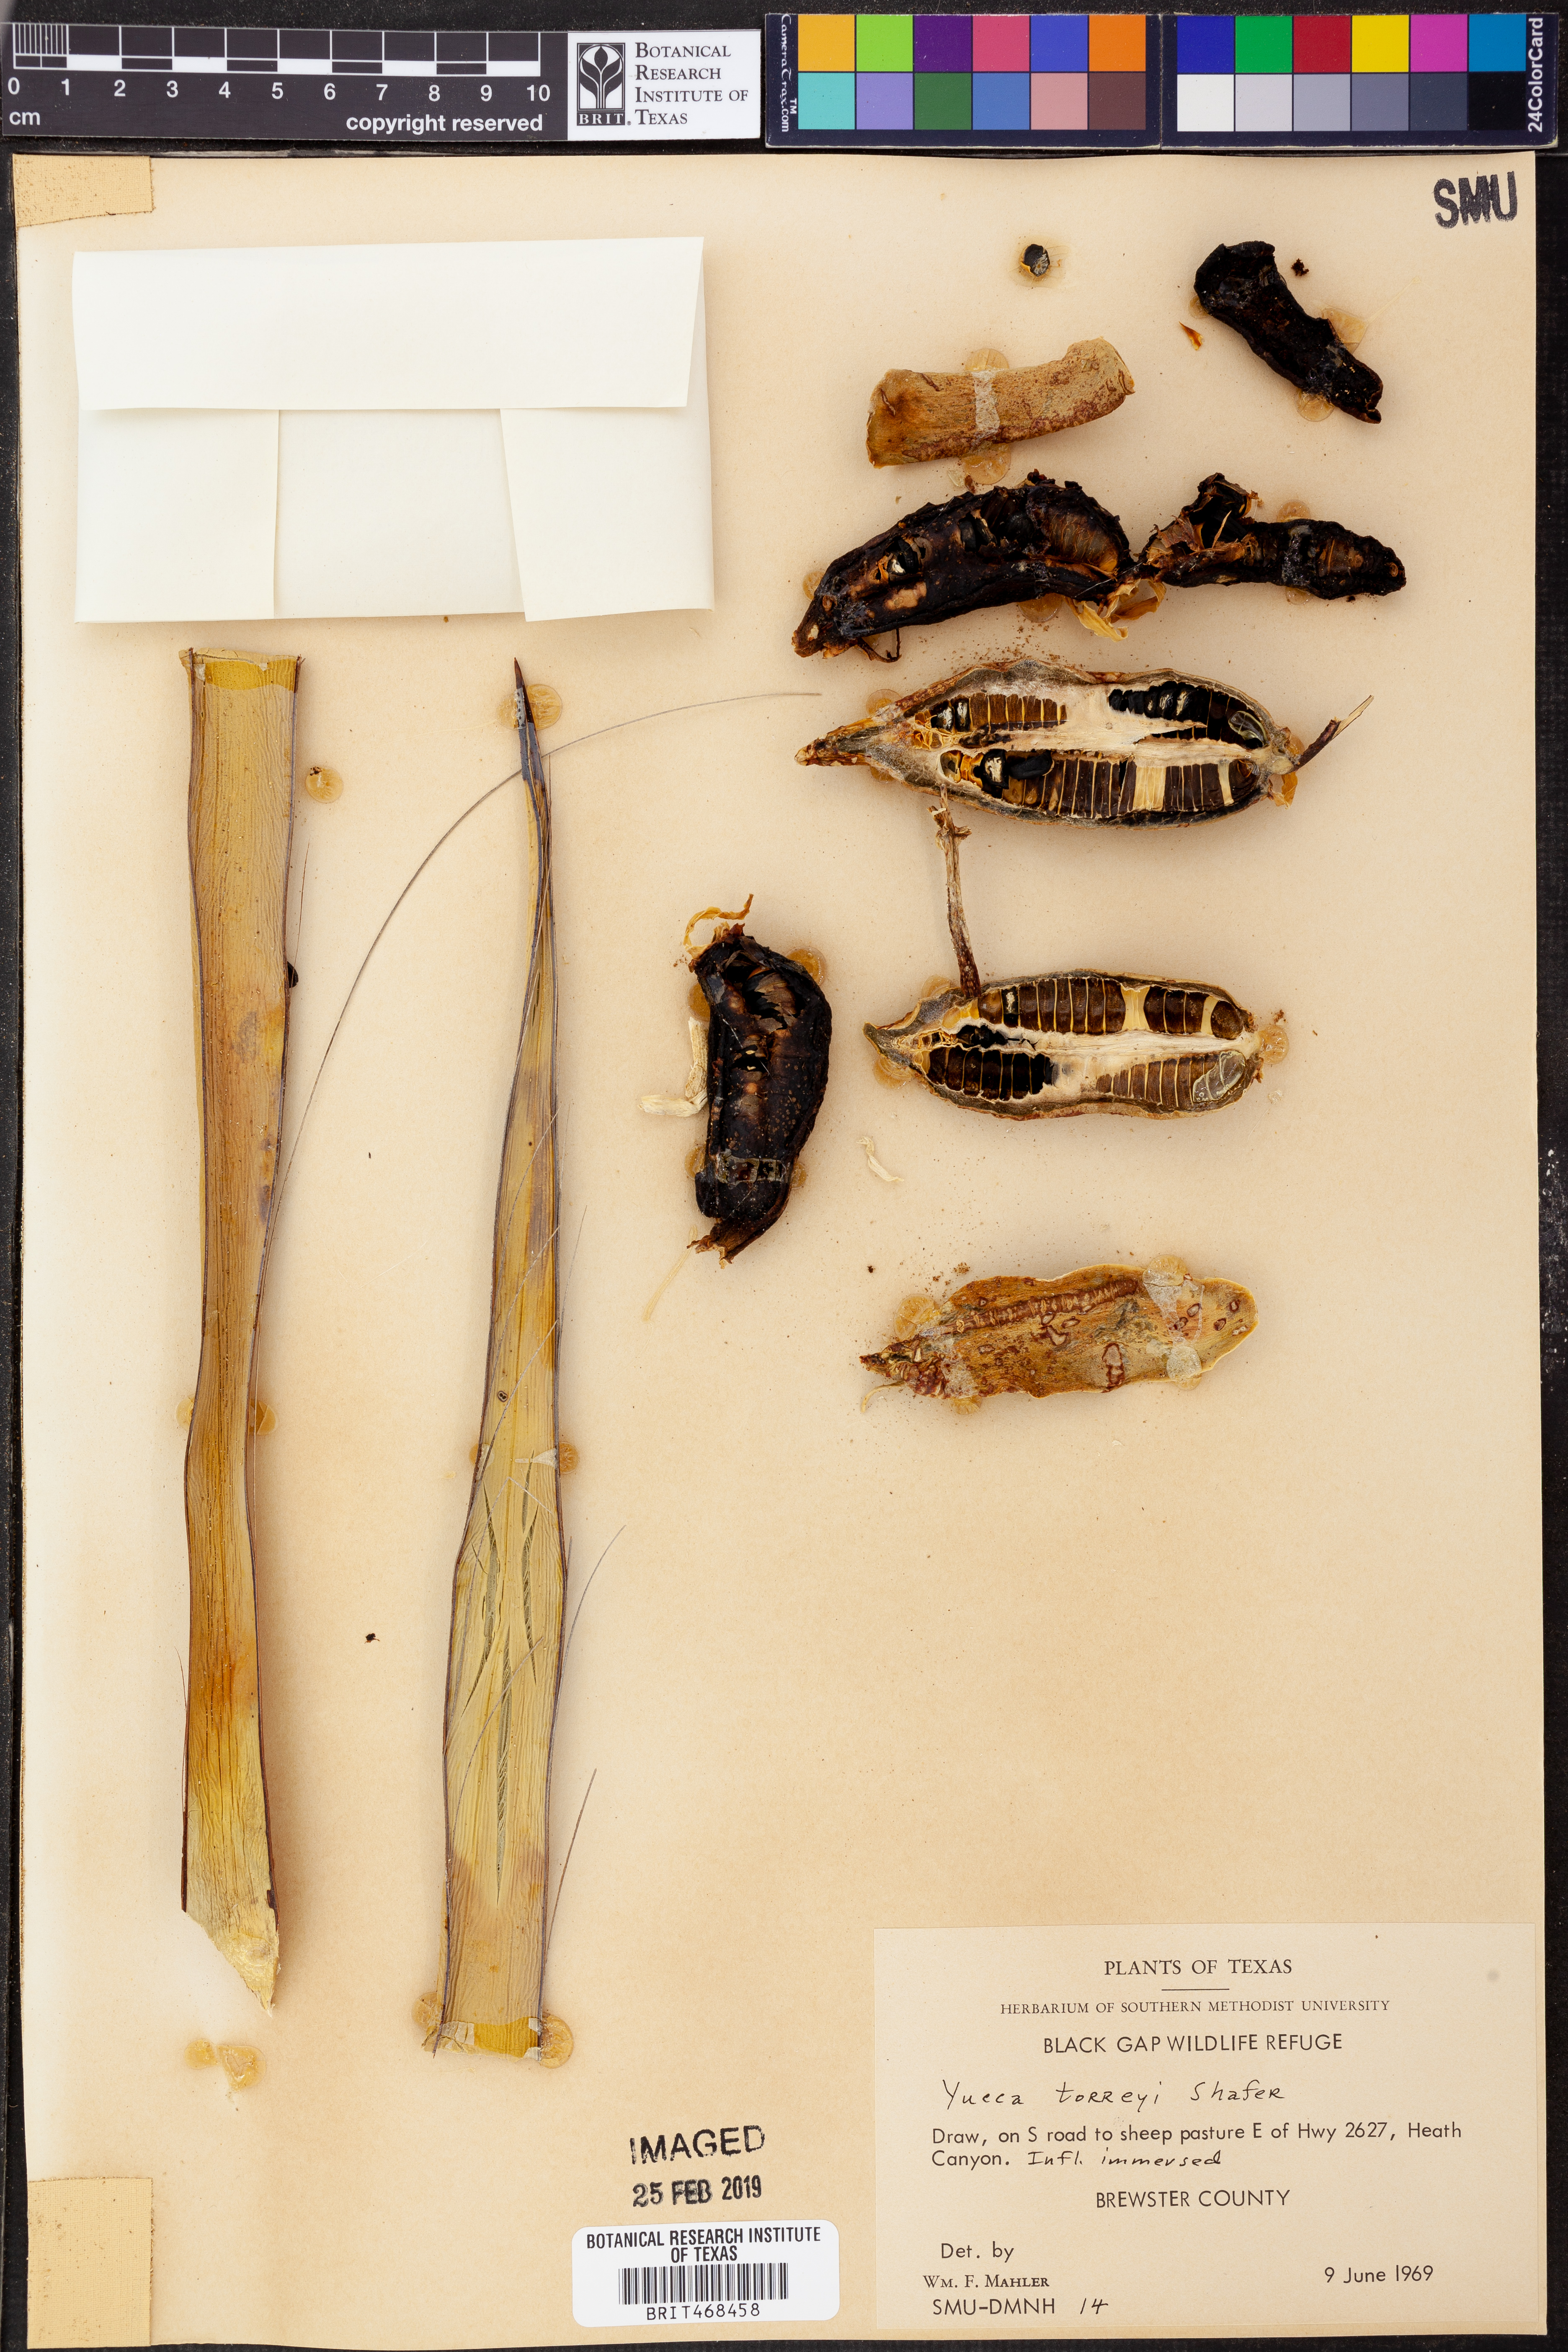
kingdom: Plantae
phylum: Tracheophyta
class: Liliopsida
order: Asparagales
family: Asparagaceae
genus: Yucca
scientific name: Yucca treculiana
